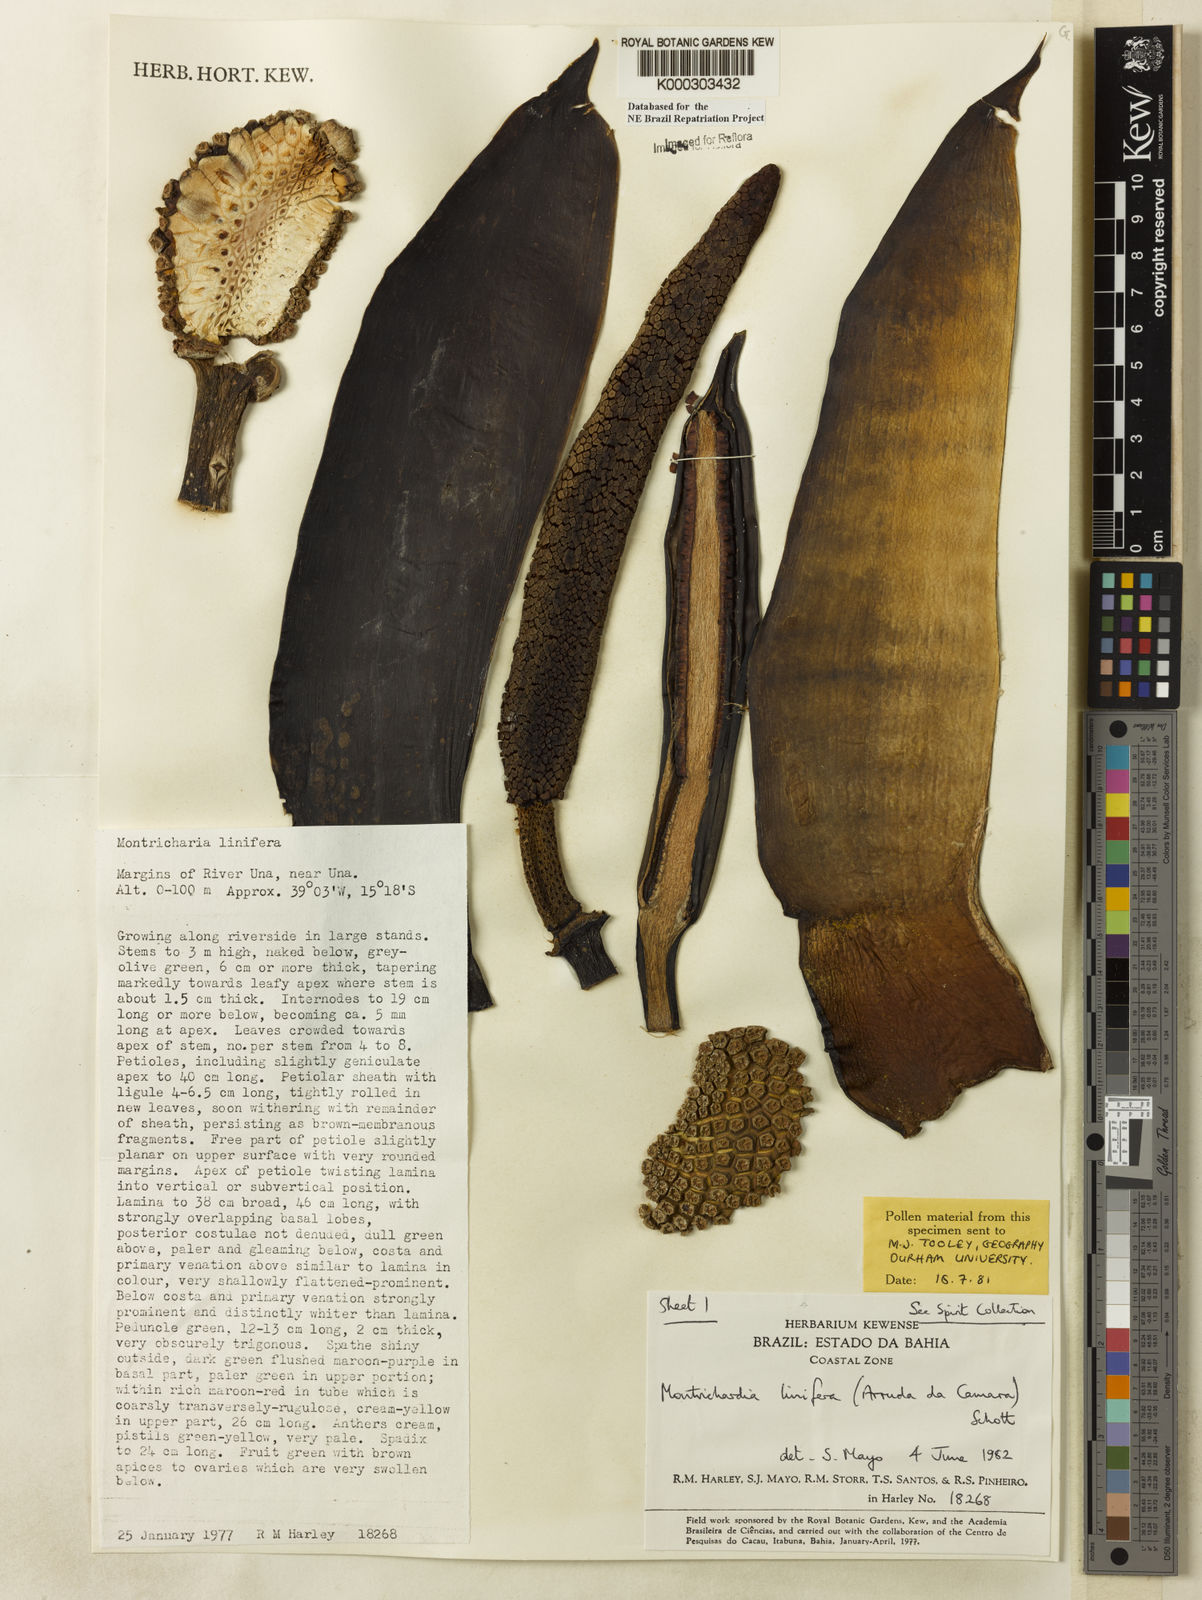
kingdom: Plantae
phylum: Tracheophyta
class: Liliopsida
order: Alismatales
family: Araceae
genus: Montrichardia
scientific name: Montrichardia linifera
